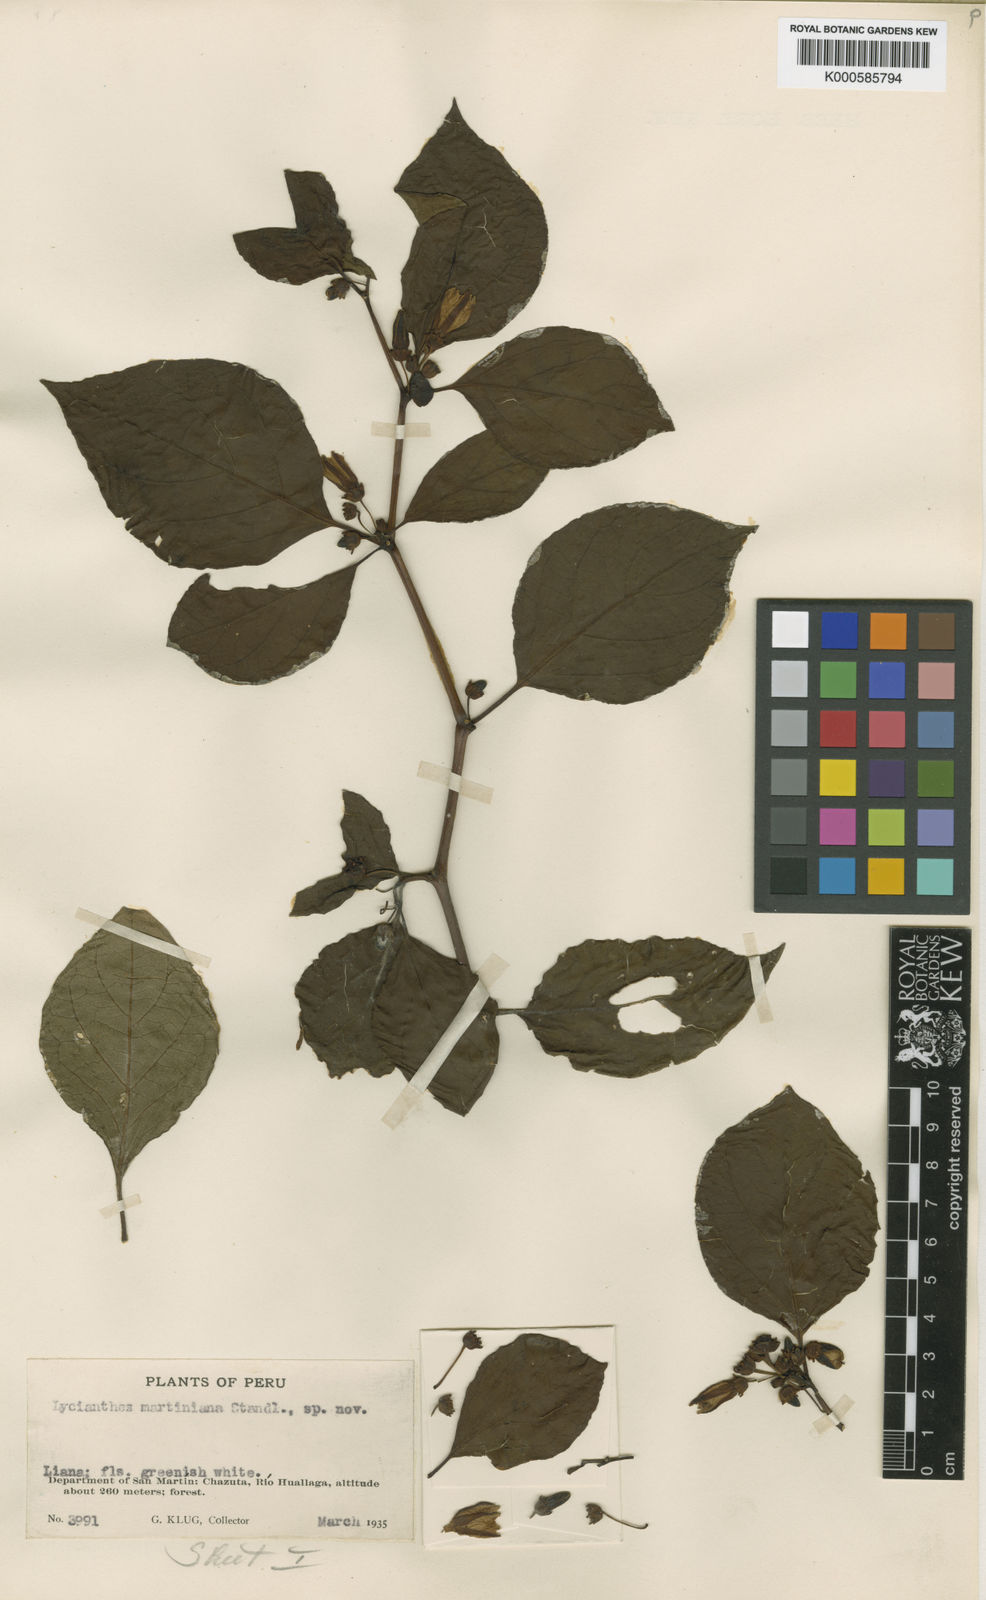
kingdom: Plantae
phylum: Tracheophyta
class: Magnoliopsida
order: Solanales
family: Solanaceae
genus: Lycianthes
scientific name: Lycianthes
